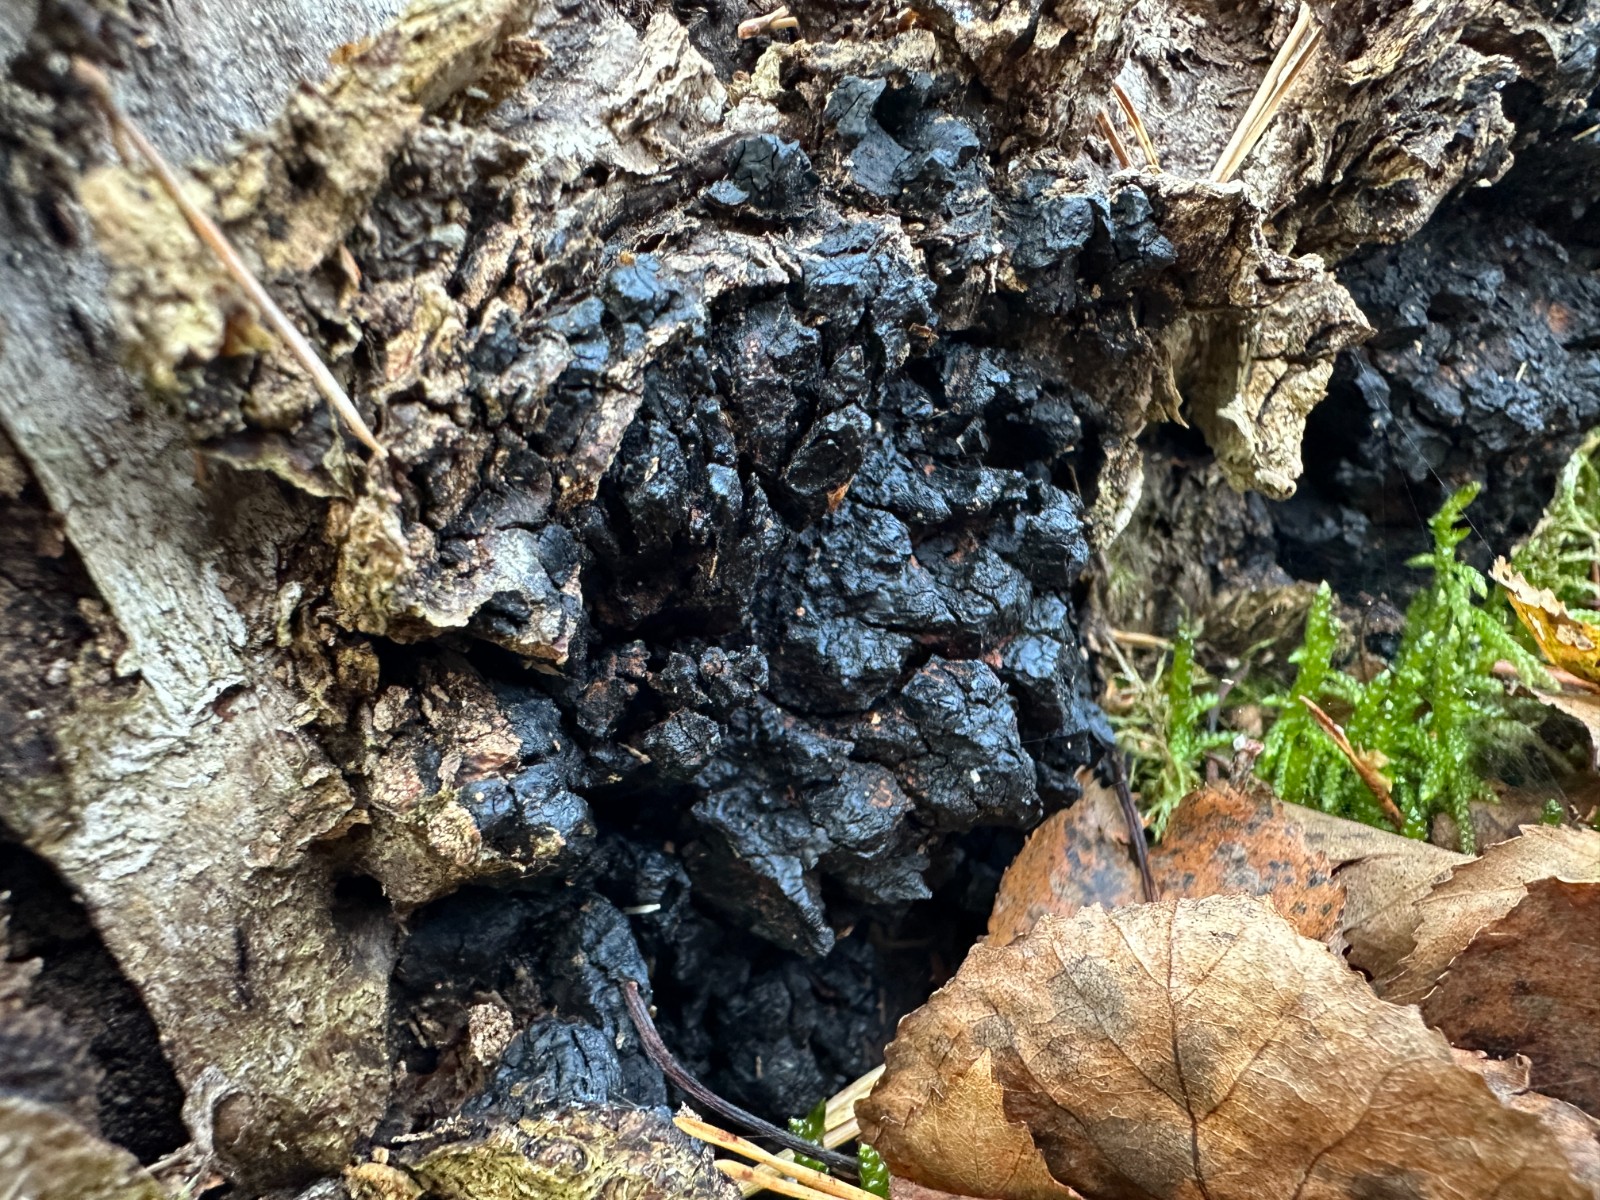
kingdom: Fungi
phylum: Basidiomycota
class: Agaricomycetes
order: Hymenochaetales
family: Hymenochaetaceae
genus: Inonotus
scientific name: Inonotus obliquus
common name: birke-spejlporesvamp
